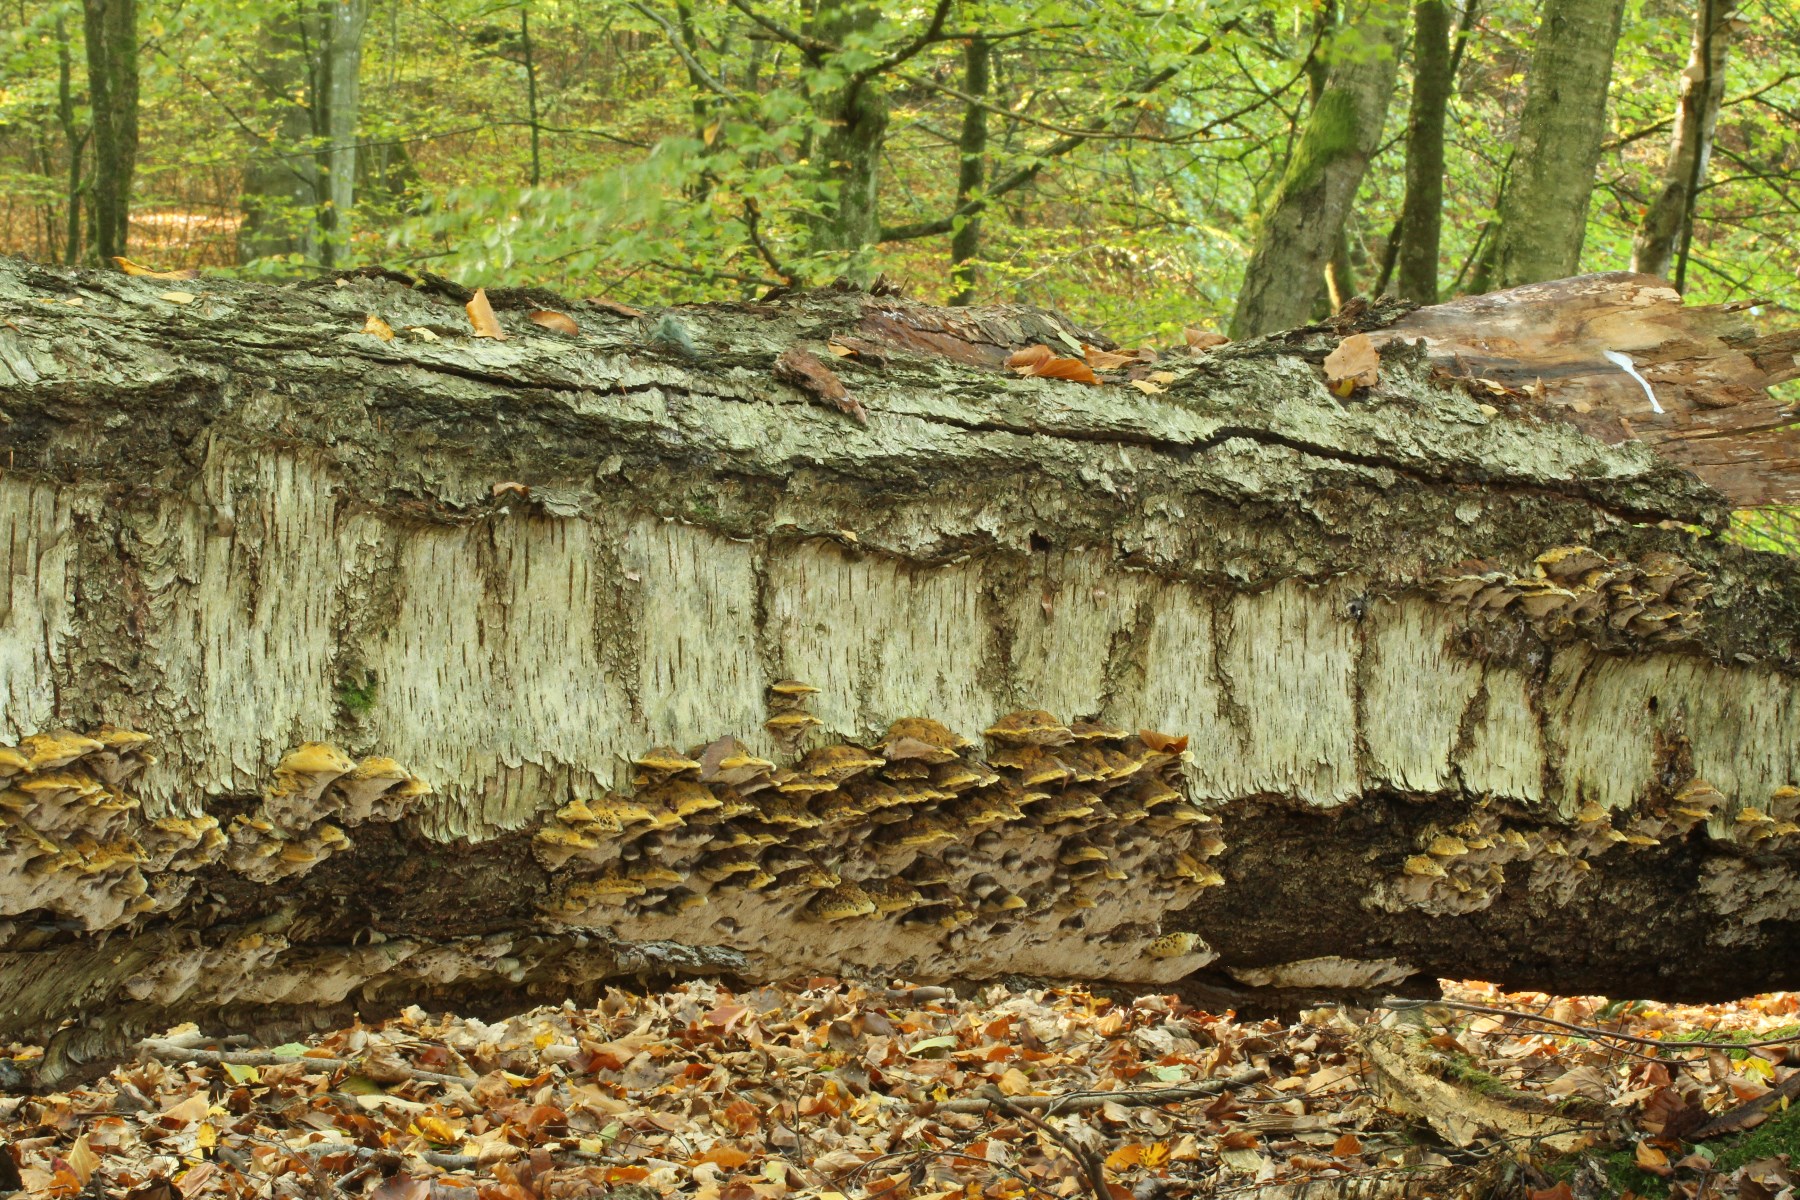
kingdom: Fungi
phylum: Basidiomycota
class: Agaricomycetes
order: Hymenochaetales
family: Hymenochaetaceae
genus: Xanthoporia
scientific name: Xanthoporia radiata
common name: elle-spejlporesvamp
